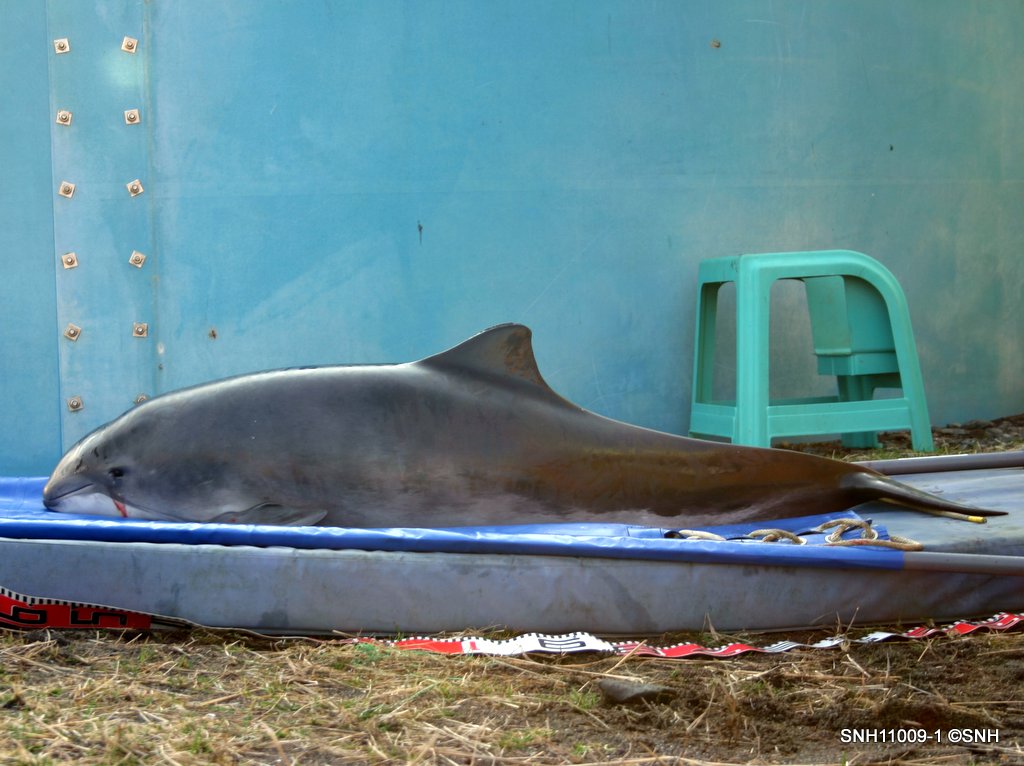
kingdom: Animalia
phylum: Chordata
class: Mammalia
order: Cetacea
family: Phocoenidae
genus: Phocoena
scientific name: Phocoena phocoena
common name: Harbour porpoise
